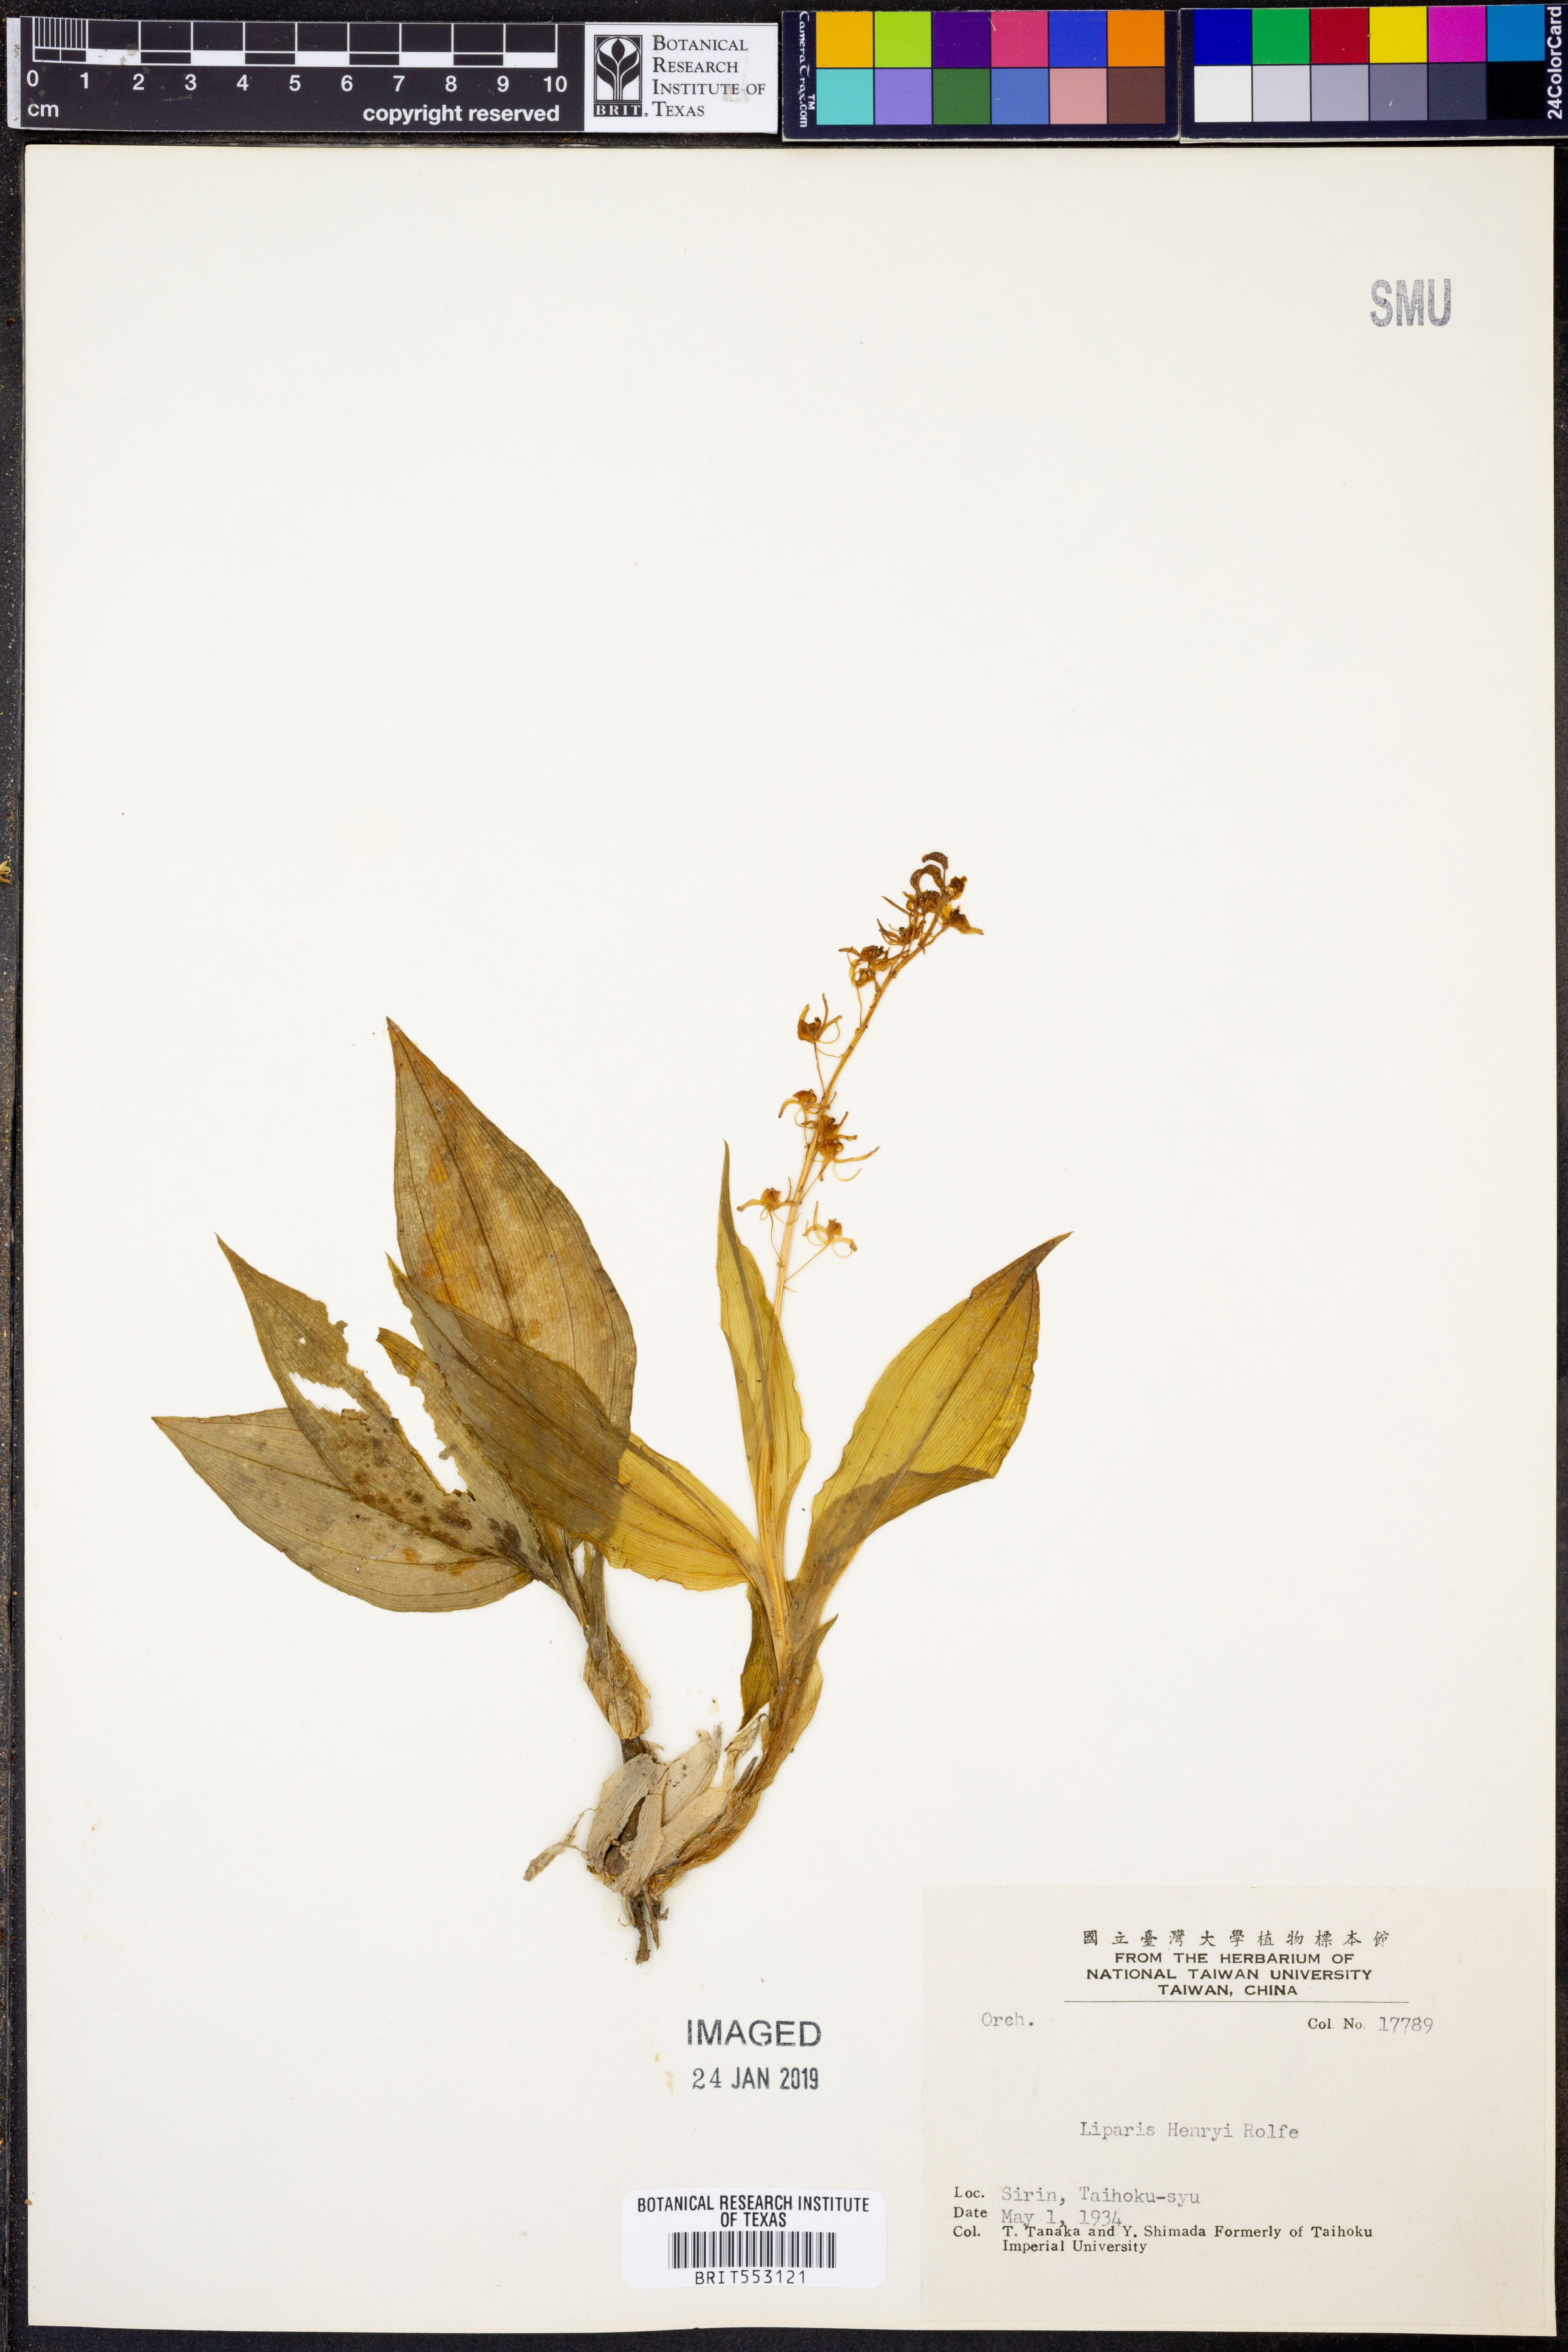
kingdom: Plantae
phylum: Tracheophyta
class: Liliopsida
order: Asparagales
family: Orchidaceae
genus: Liparis
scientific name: Liparis henryi
